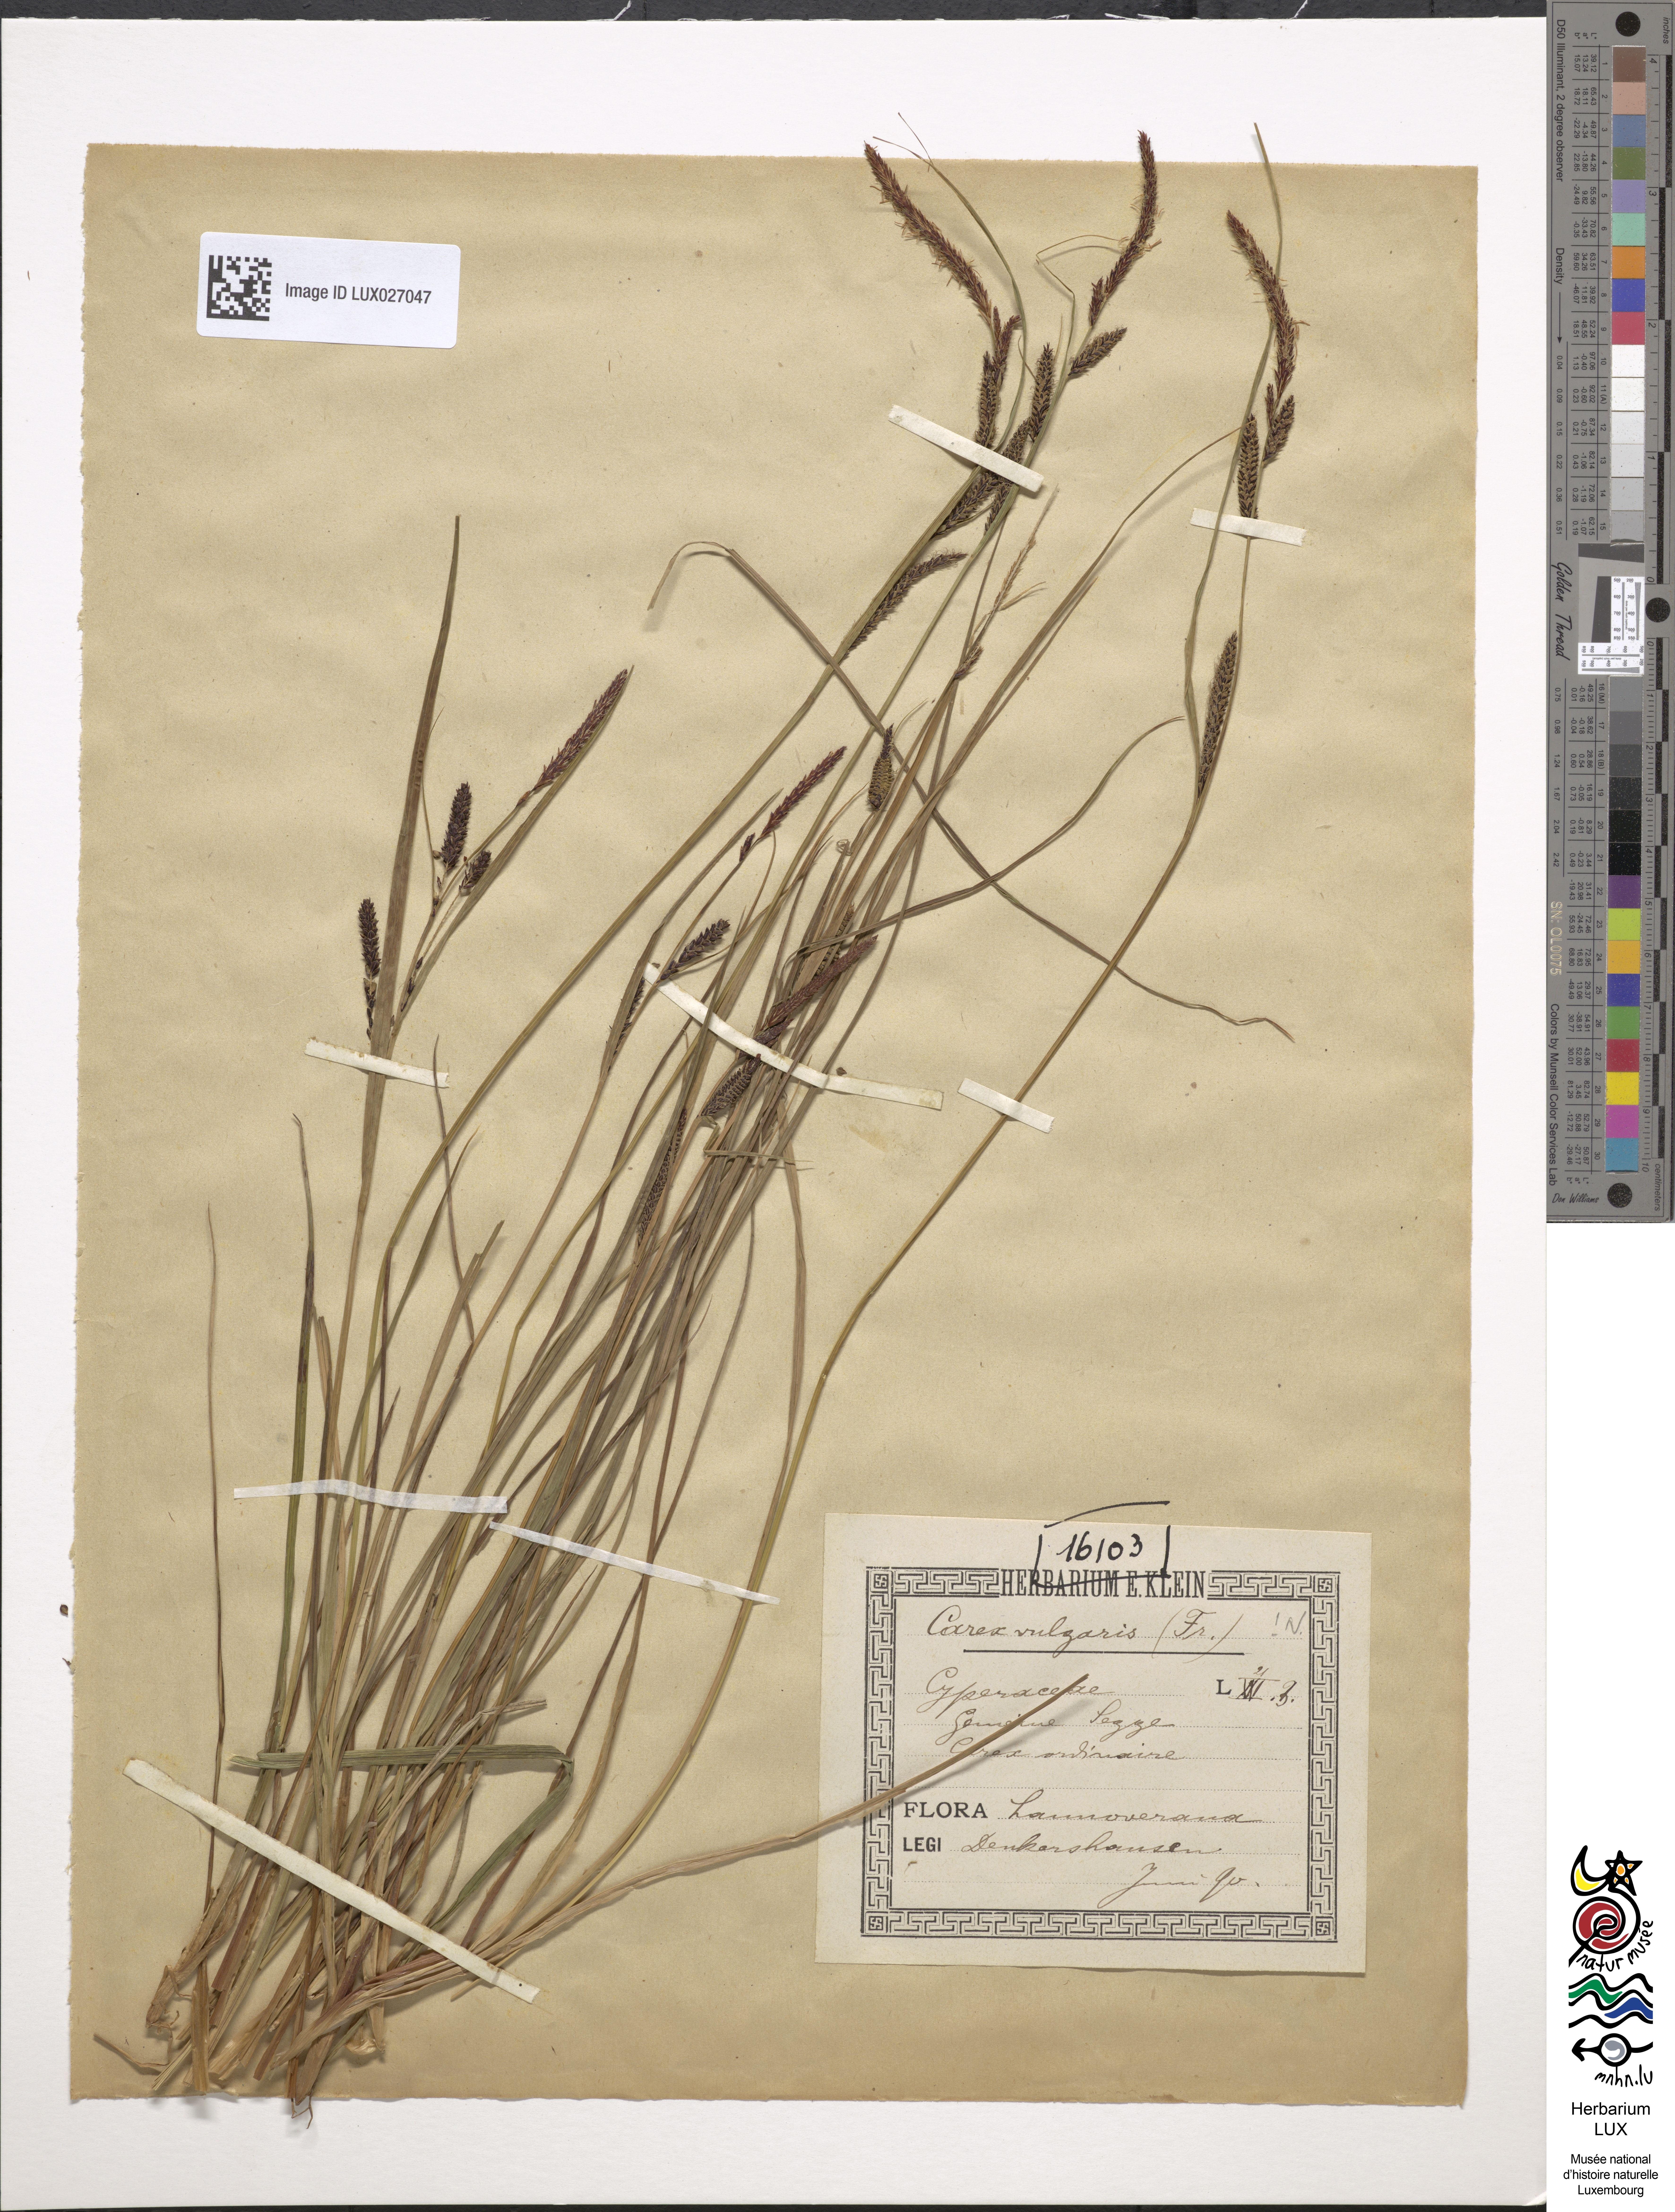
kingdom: Plantae
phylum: Tracheophyta
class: Liliopsida
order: Poales
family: Cyperaceae
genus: Carex
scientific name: Carex nigra
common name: Common sedge
